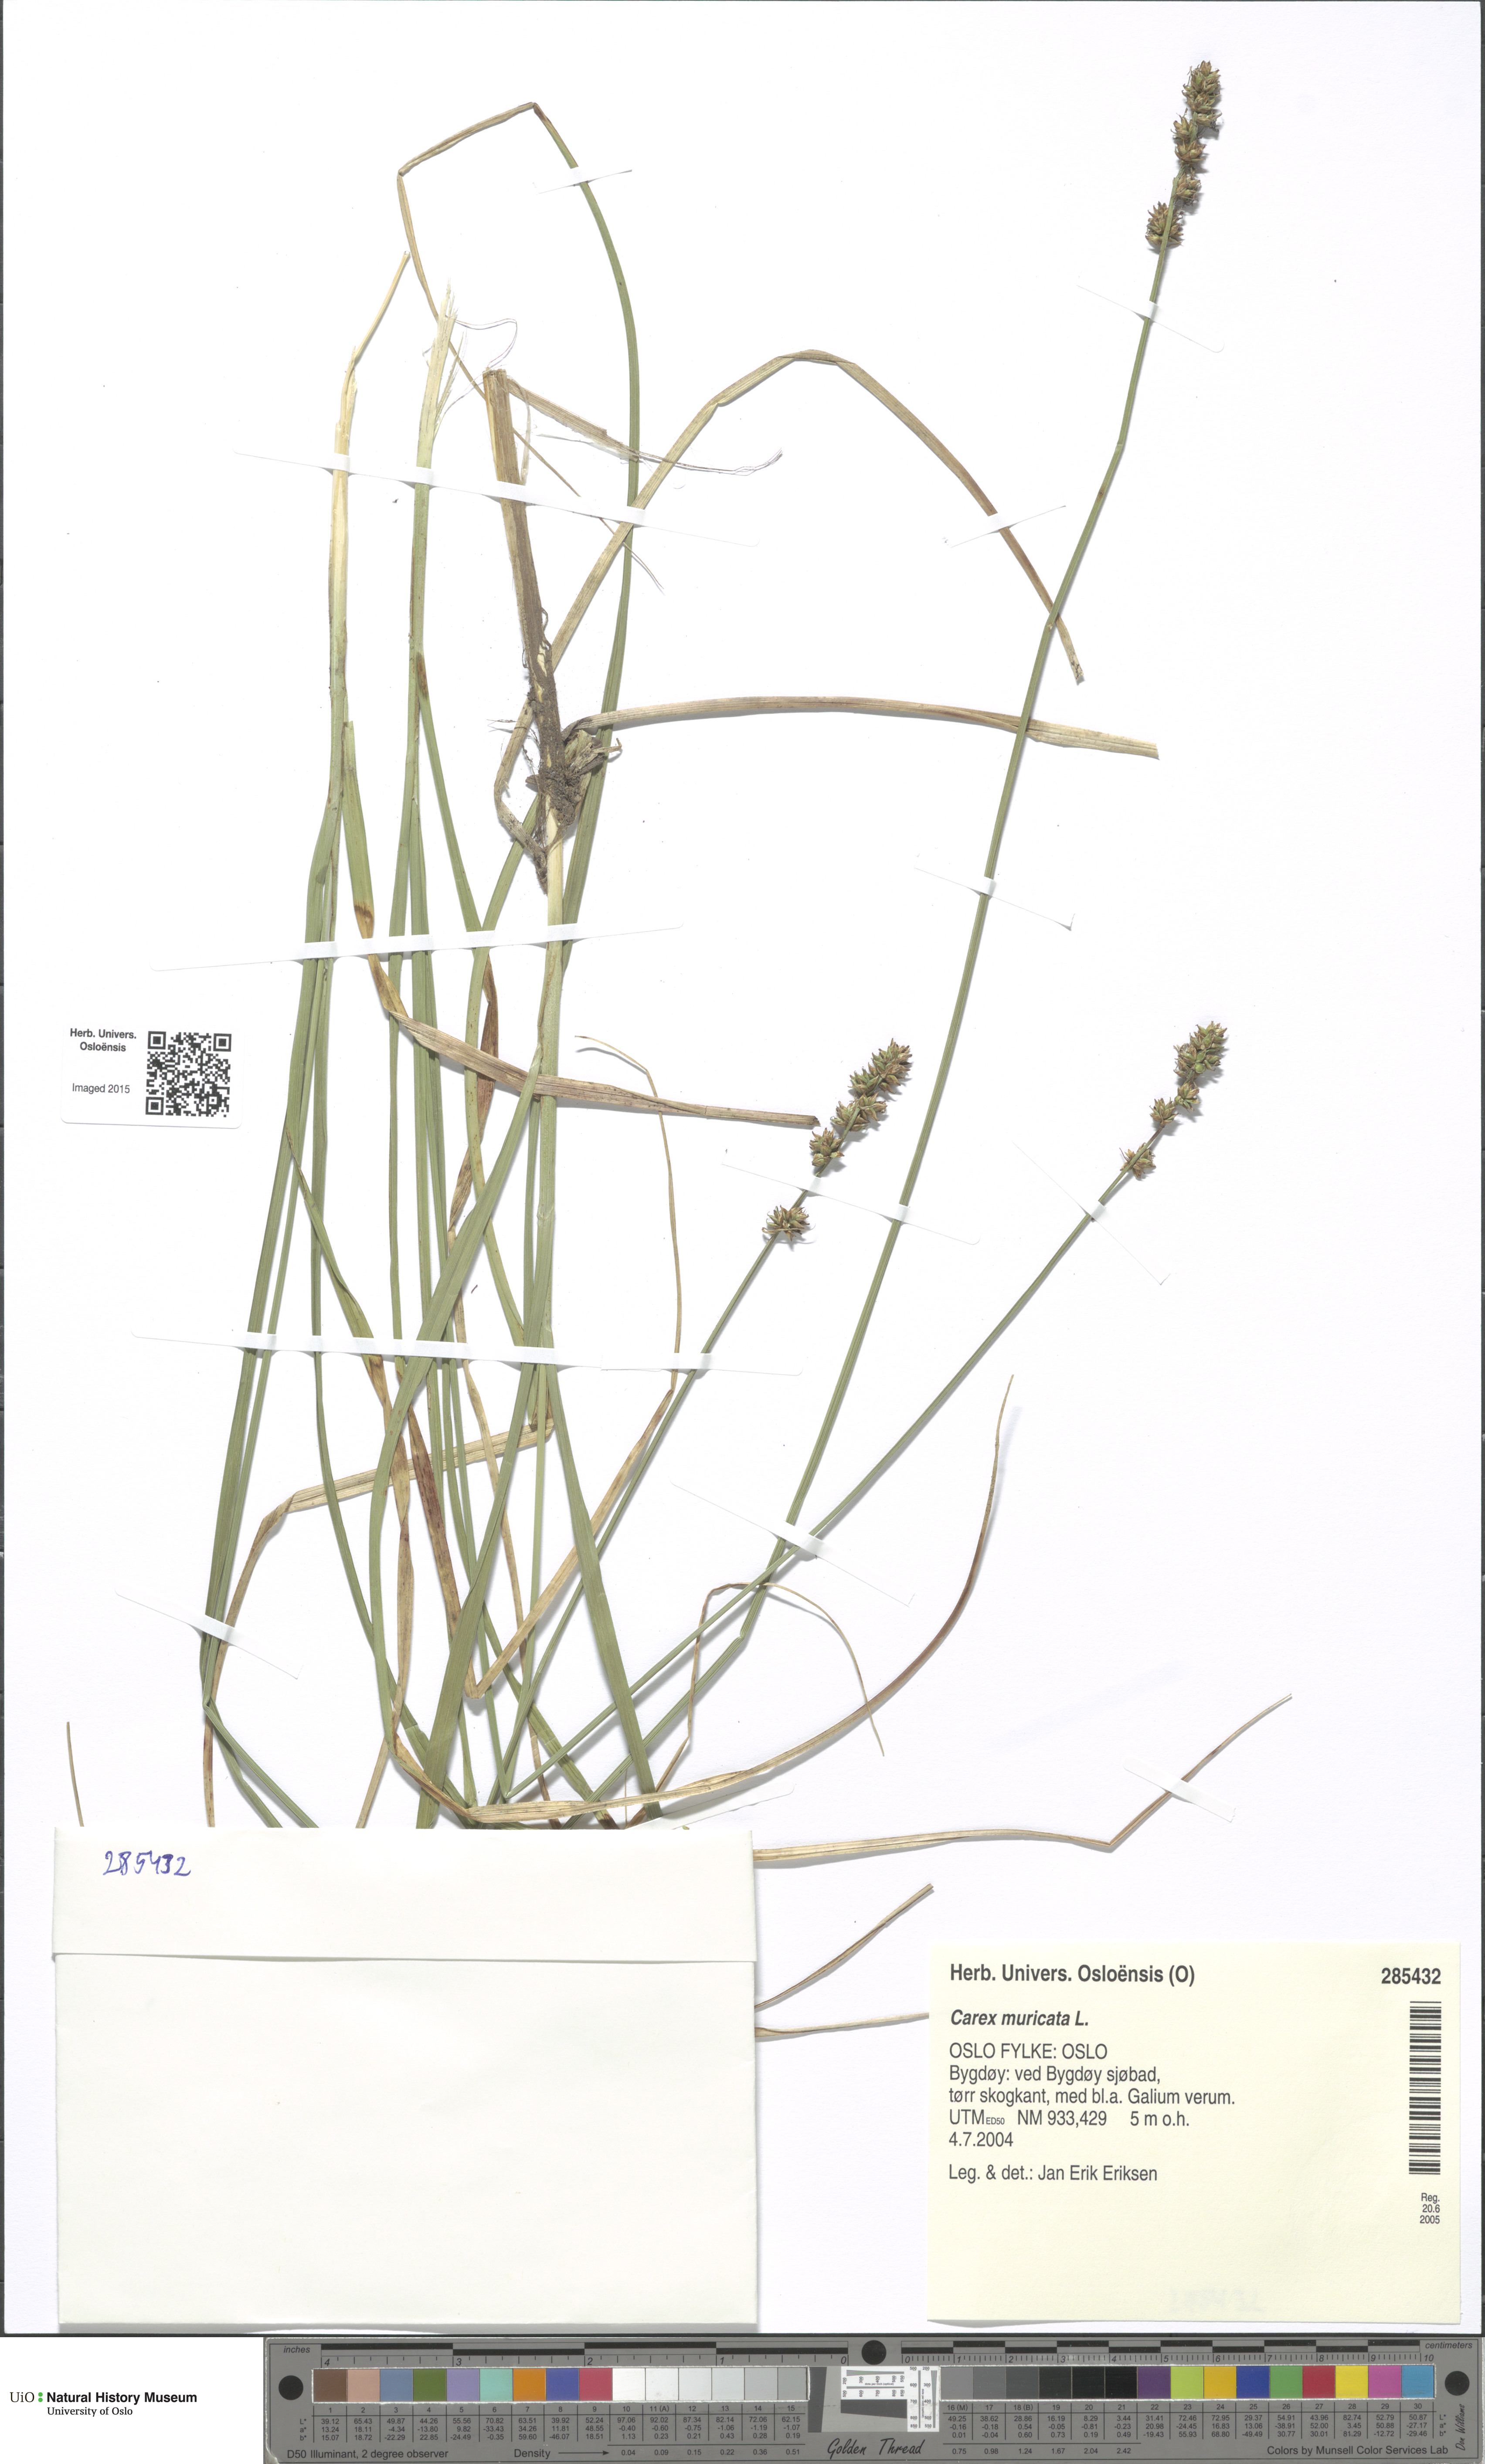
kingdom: Plantae
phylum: Tracheophyta
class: Liliopsida
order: Poales
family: Cyperaceae
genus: Carex
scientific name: Carex muricata
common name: Rough sedge
